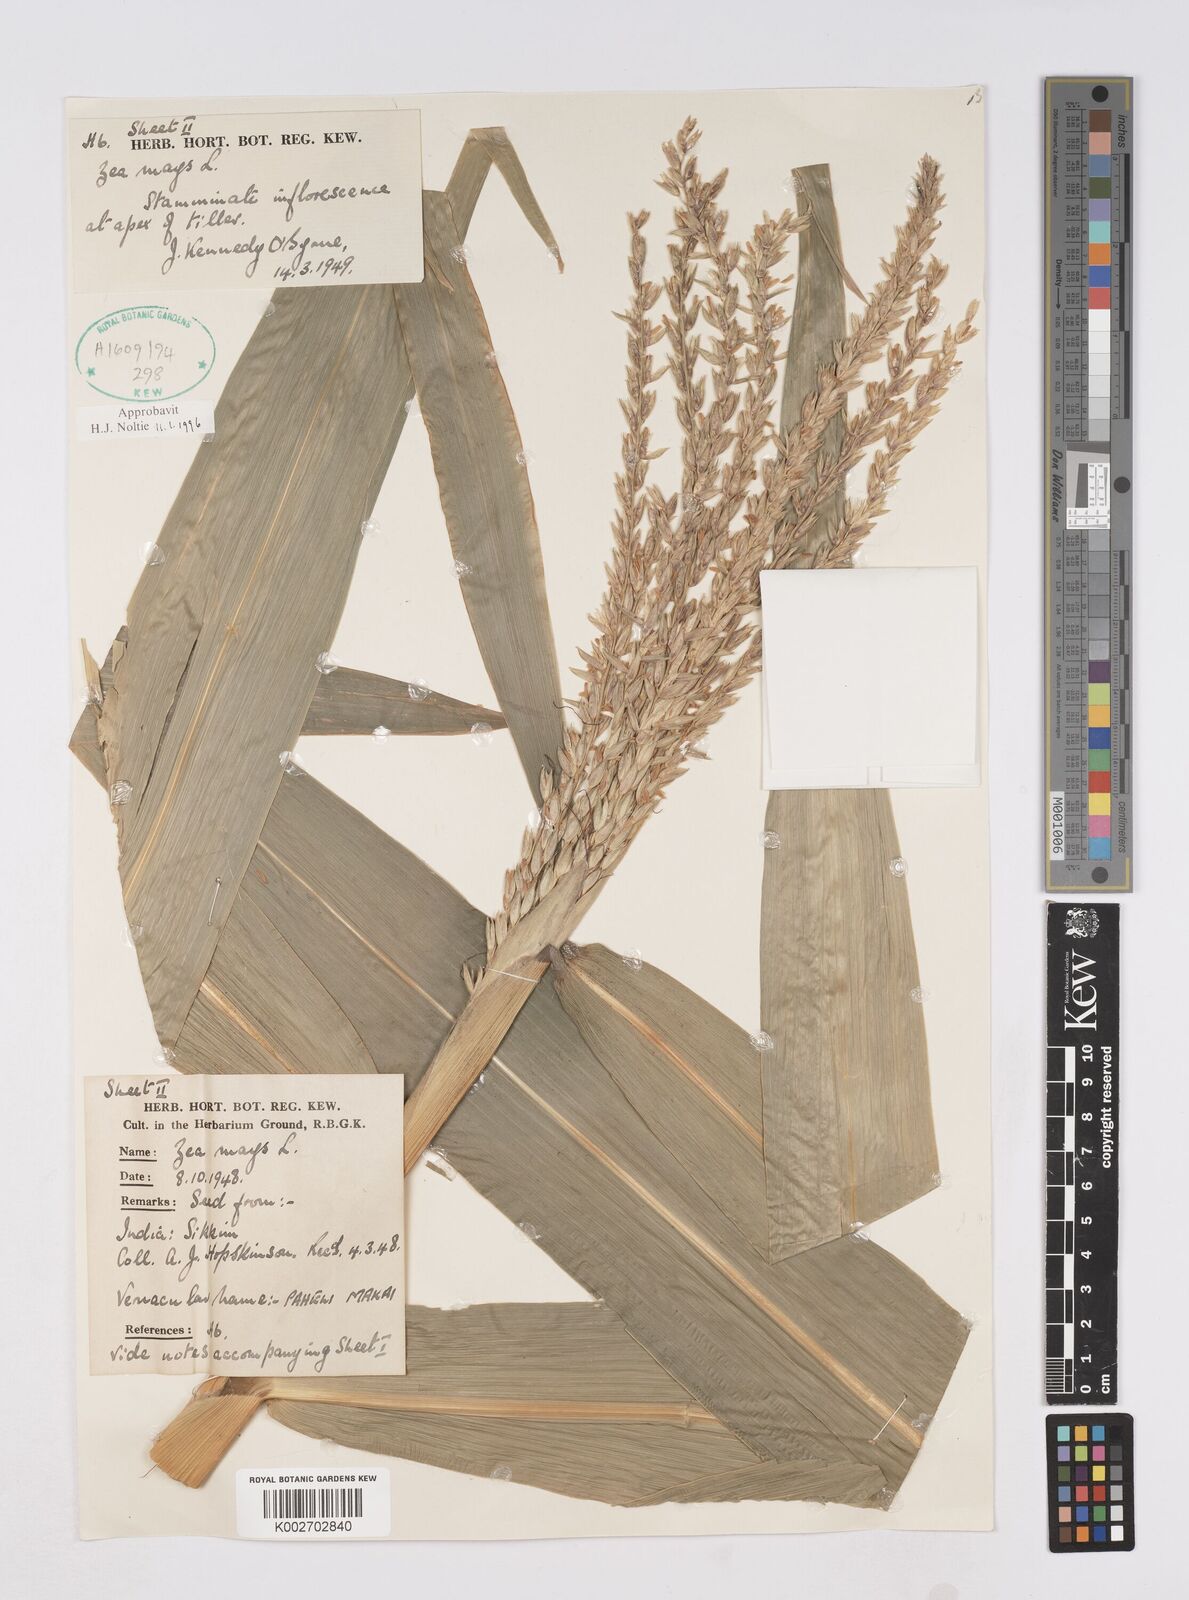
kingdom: Plantae
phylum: Tracheophyta
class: Liliopsida
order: Poales
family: Poaceae
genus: Zea
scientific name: Zea mays
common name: Maize
